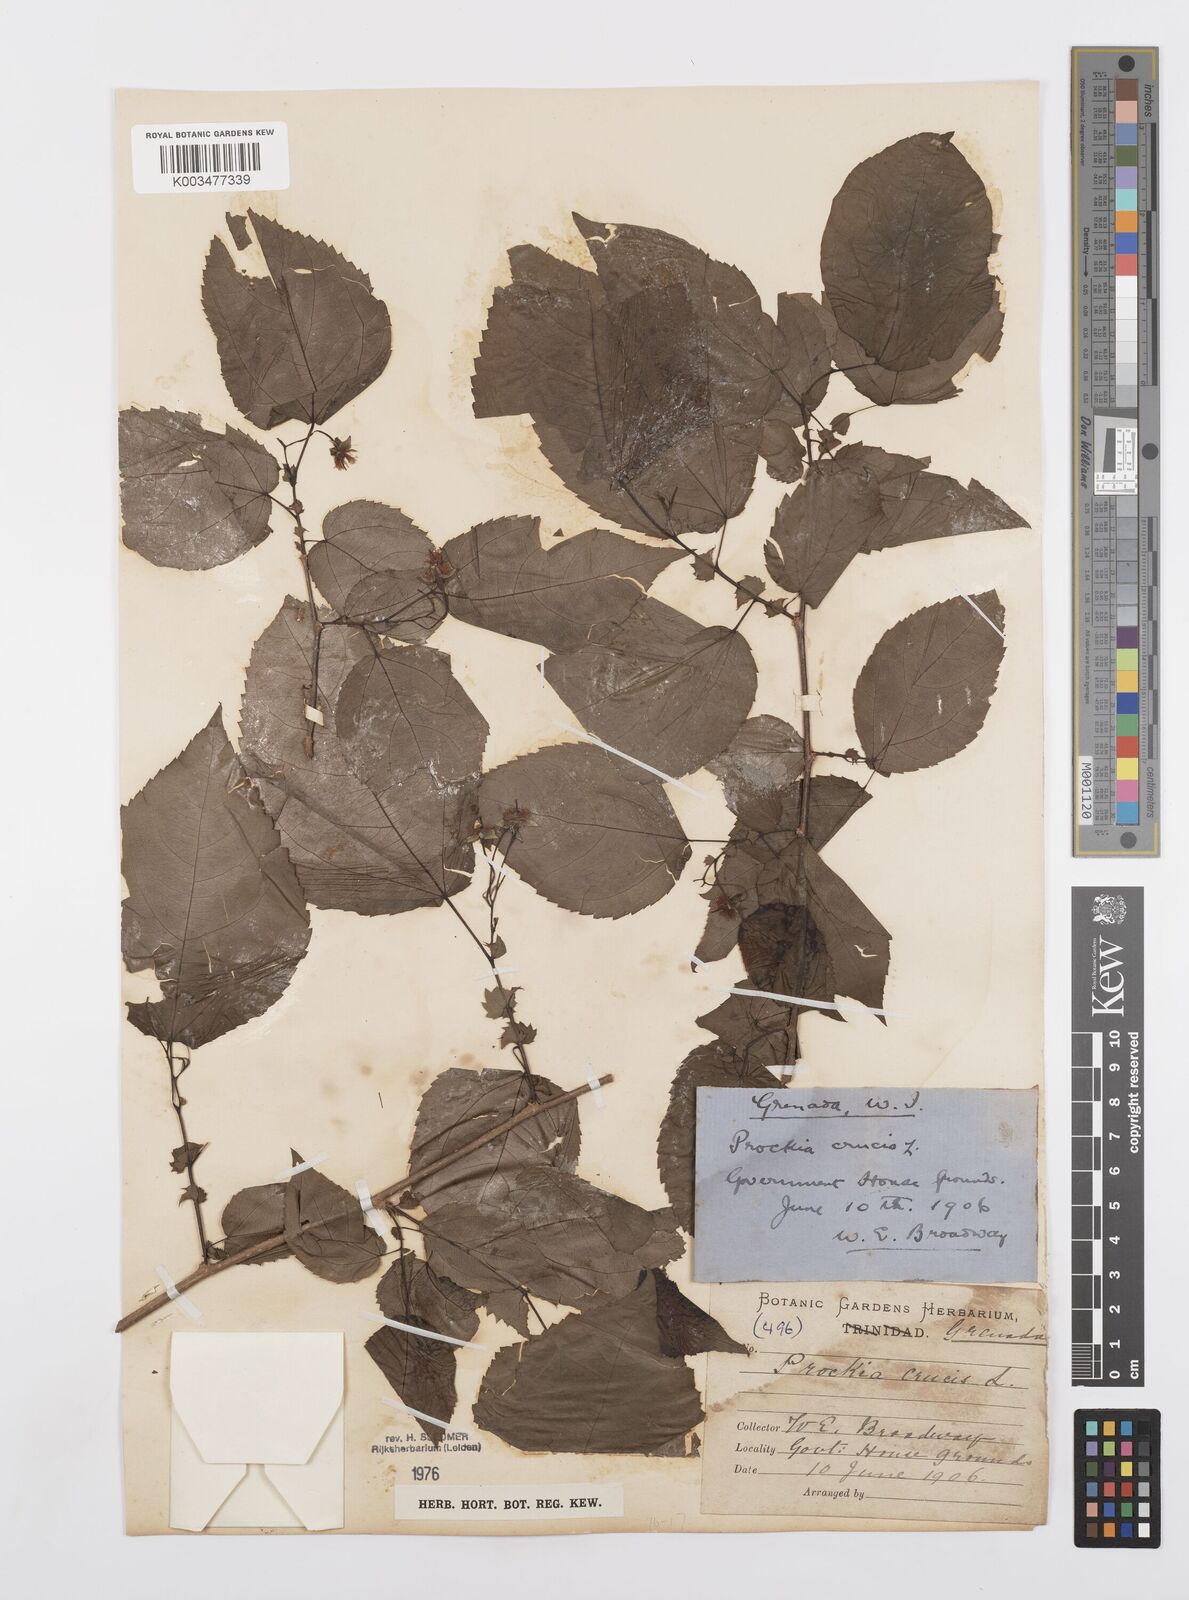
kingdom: Plantae
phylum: Tracheophyta
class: Magnoliopsida
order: Malpighiales
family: Salicaceae
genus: Prockia
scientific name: Prockia crucis
